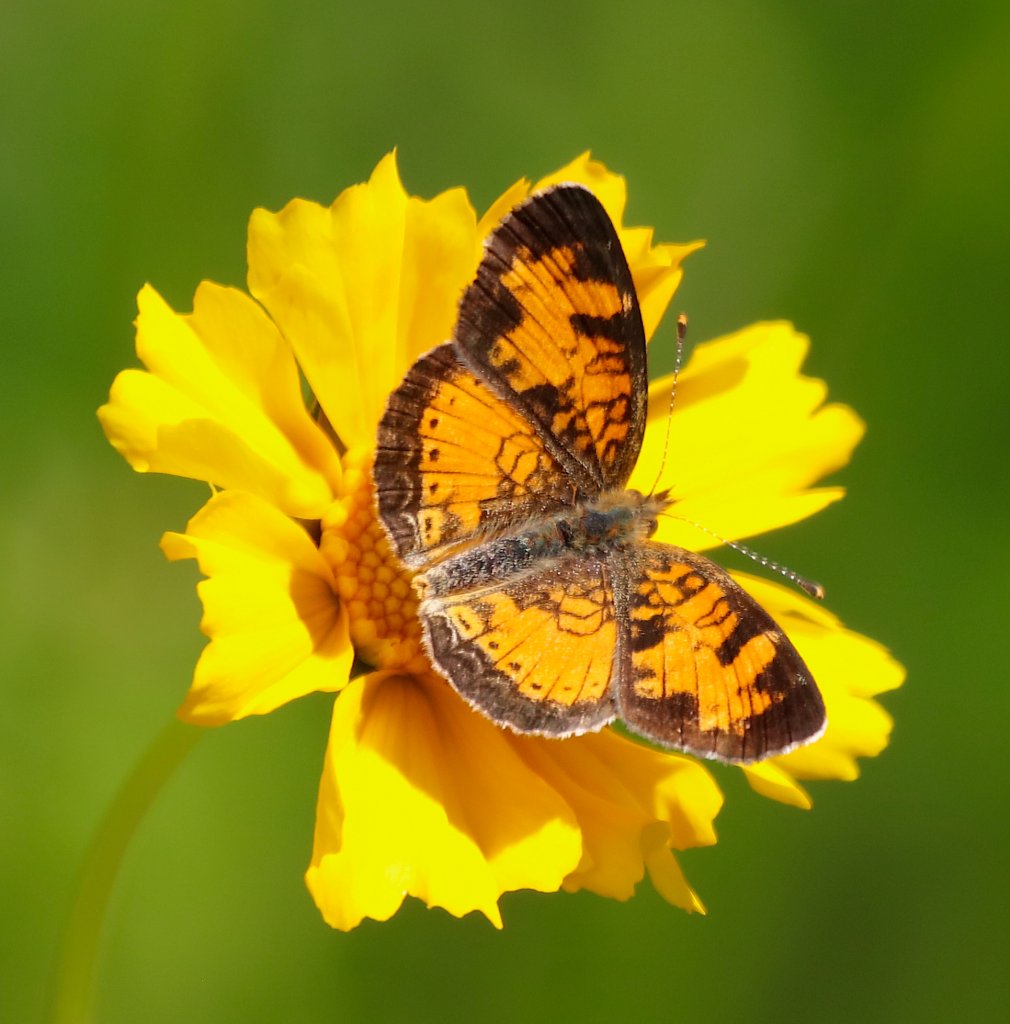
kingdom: Animalia
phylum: Arthropoda
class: Insecta
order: Lepidoptera
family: Nymphalidae
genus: Phyciodes
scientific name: Phyciodes tharos
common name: Northern Crescent
